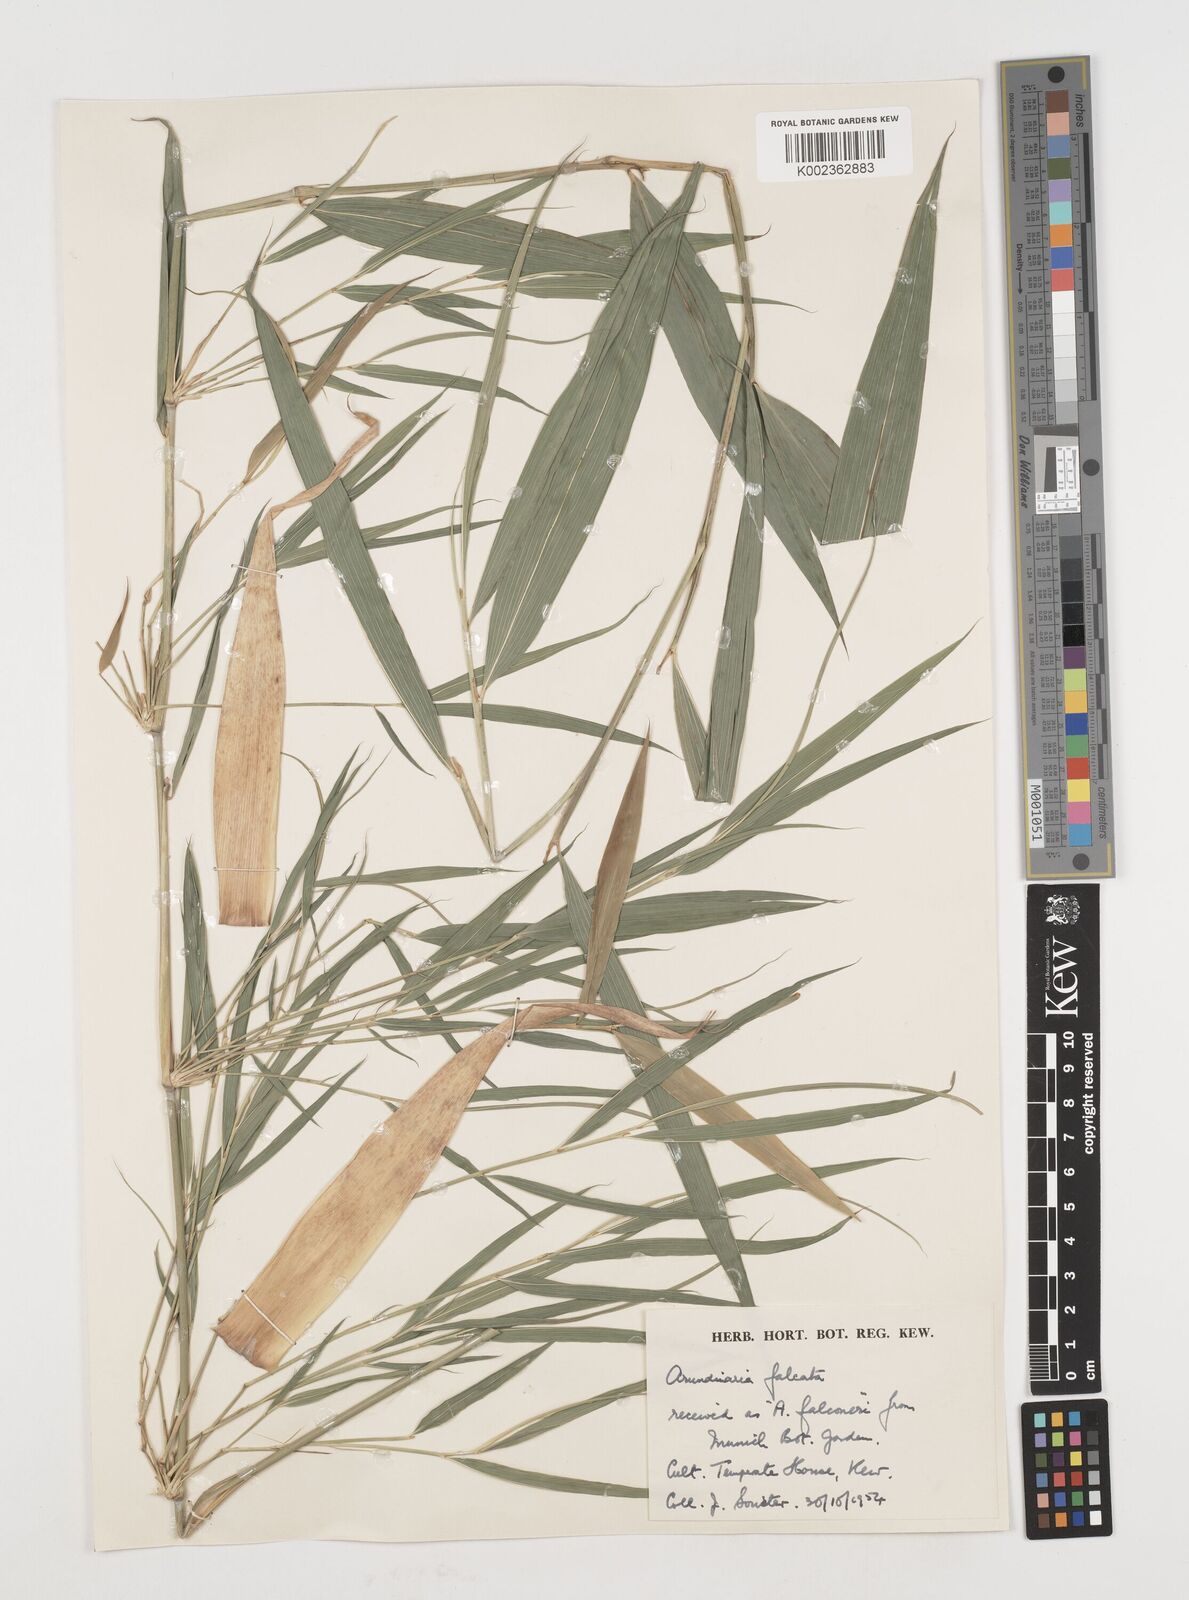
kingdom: Plantae
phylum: Tracheophyta
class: Liliopsida
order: Poales
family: Poaceae
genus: Drepanostachyum
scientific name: Drepanostachyum falcatum
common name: Himalayan bamboo
